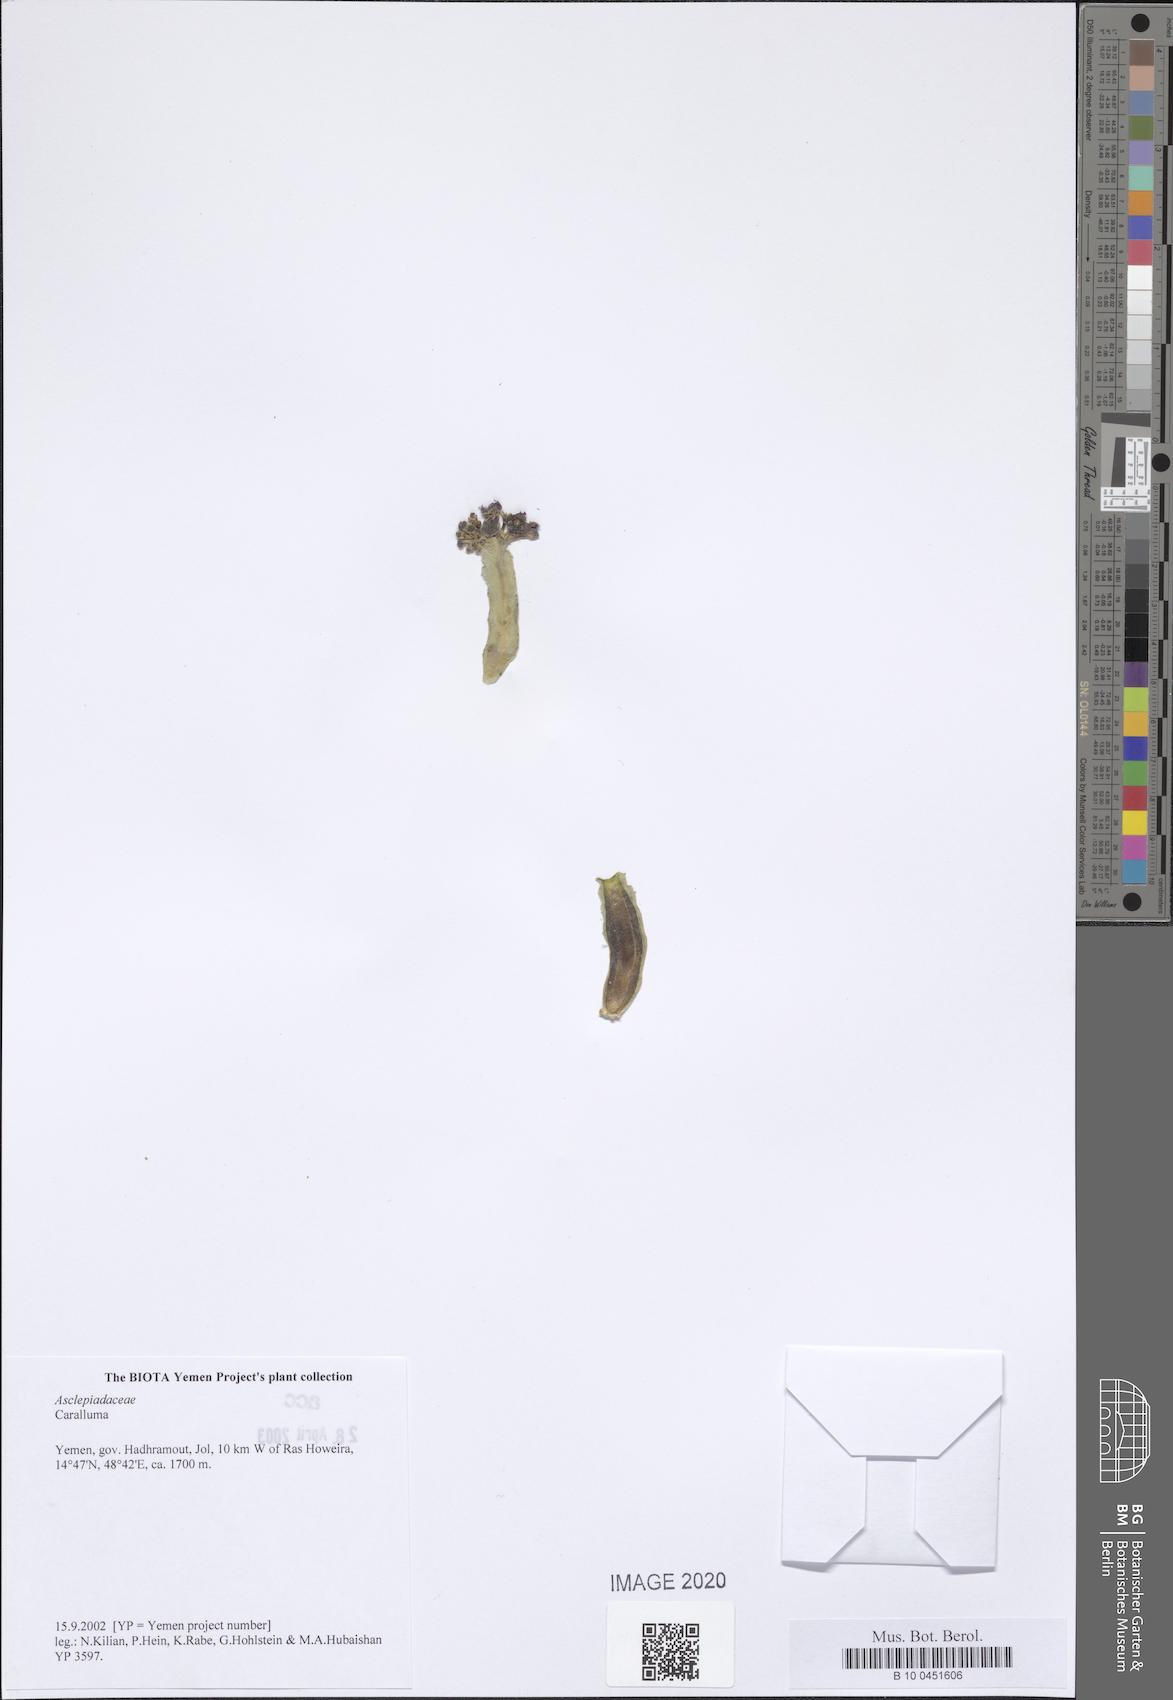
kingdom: Plantae
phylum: Tracheophyta
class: Magnoliopsida
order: Gentianales
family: Apocynaceae
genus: Caralluma
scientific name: Caralluma
